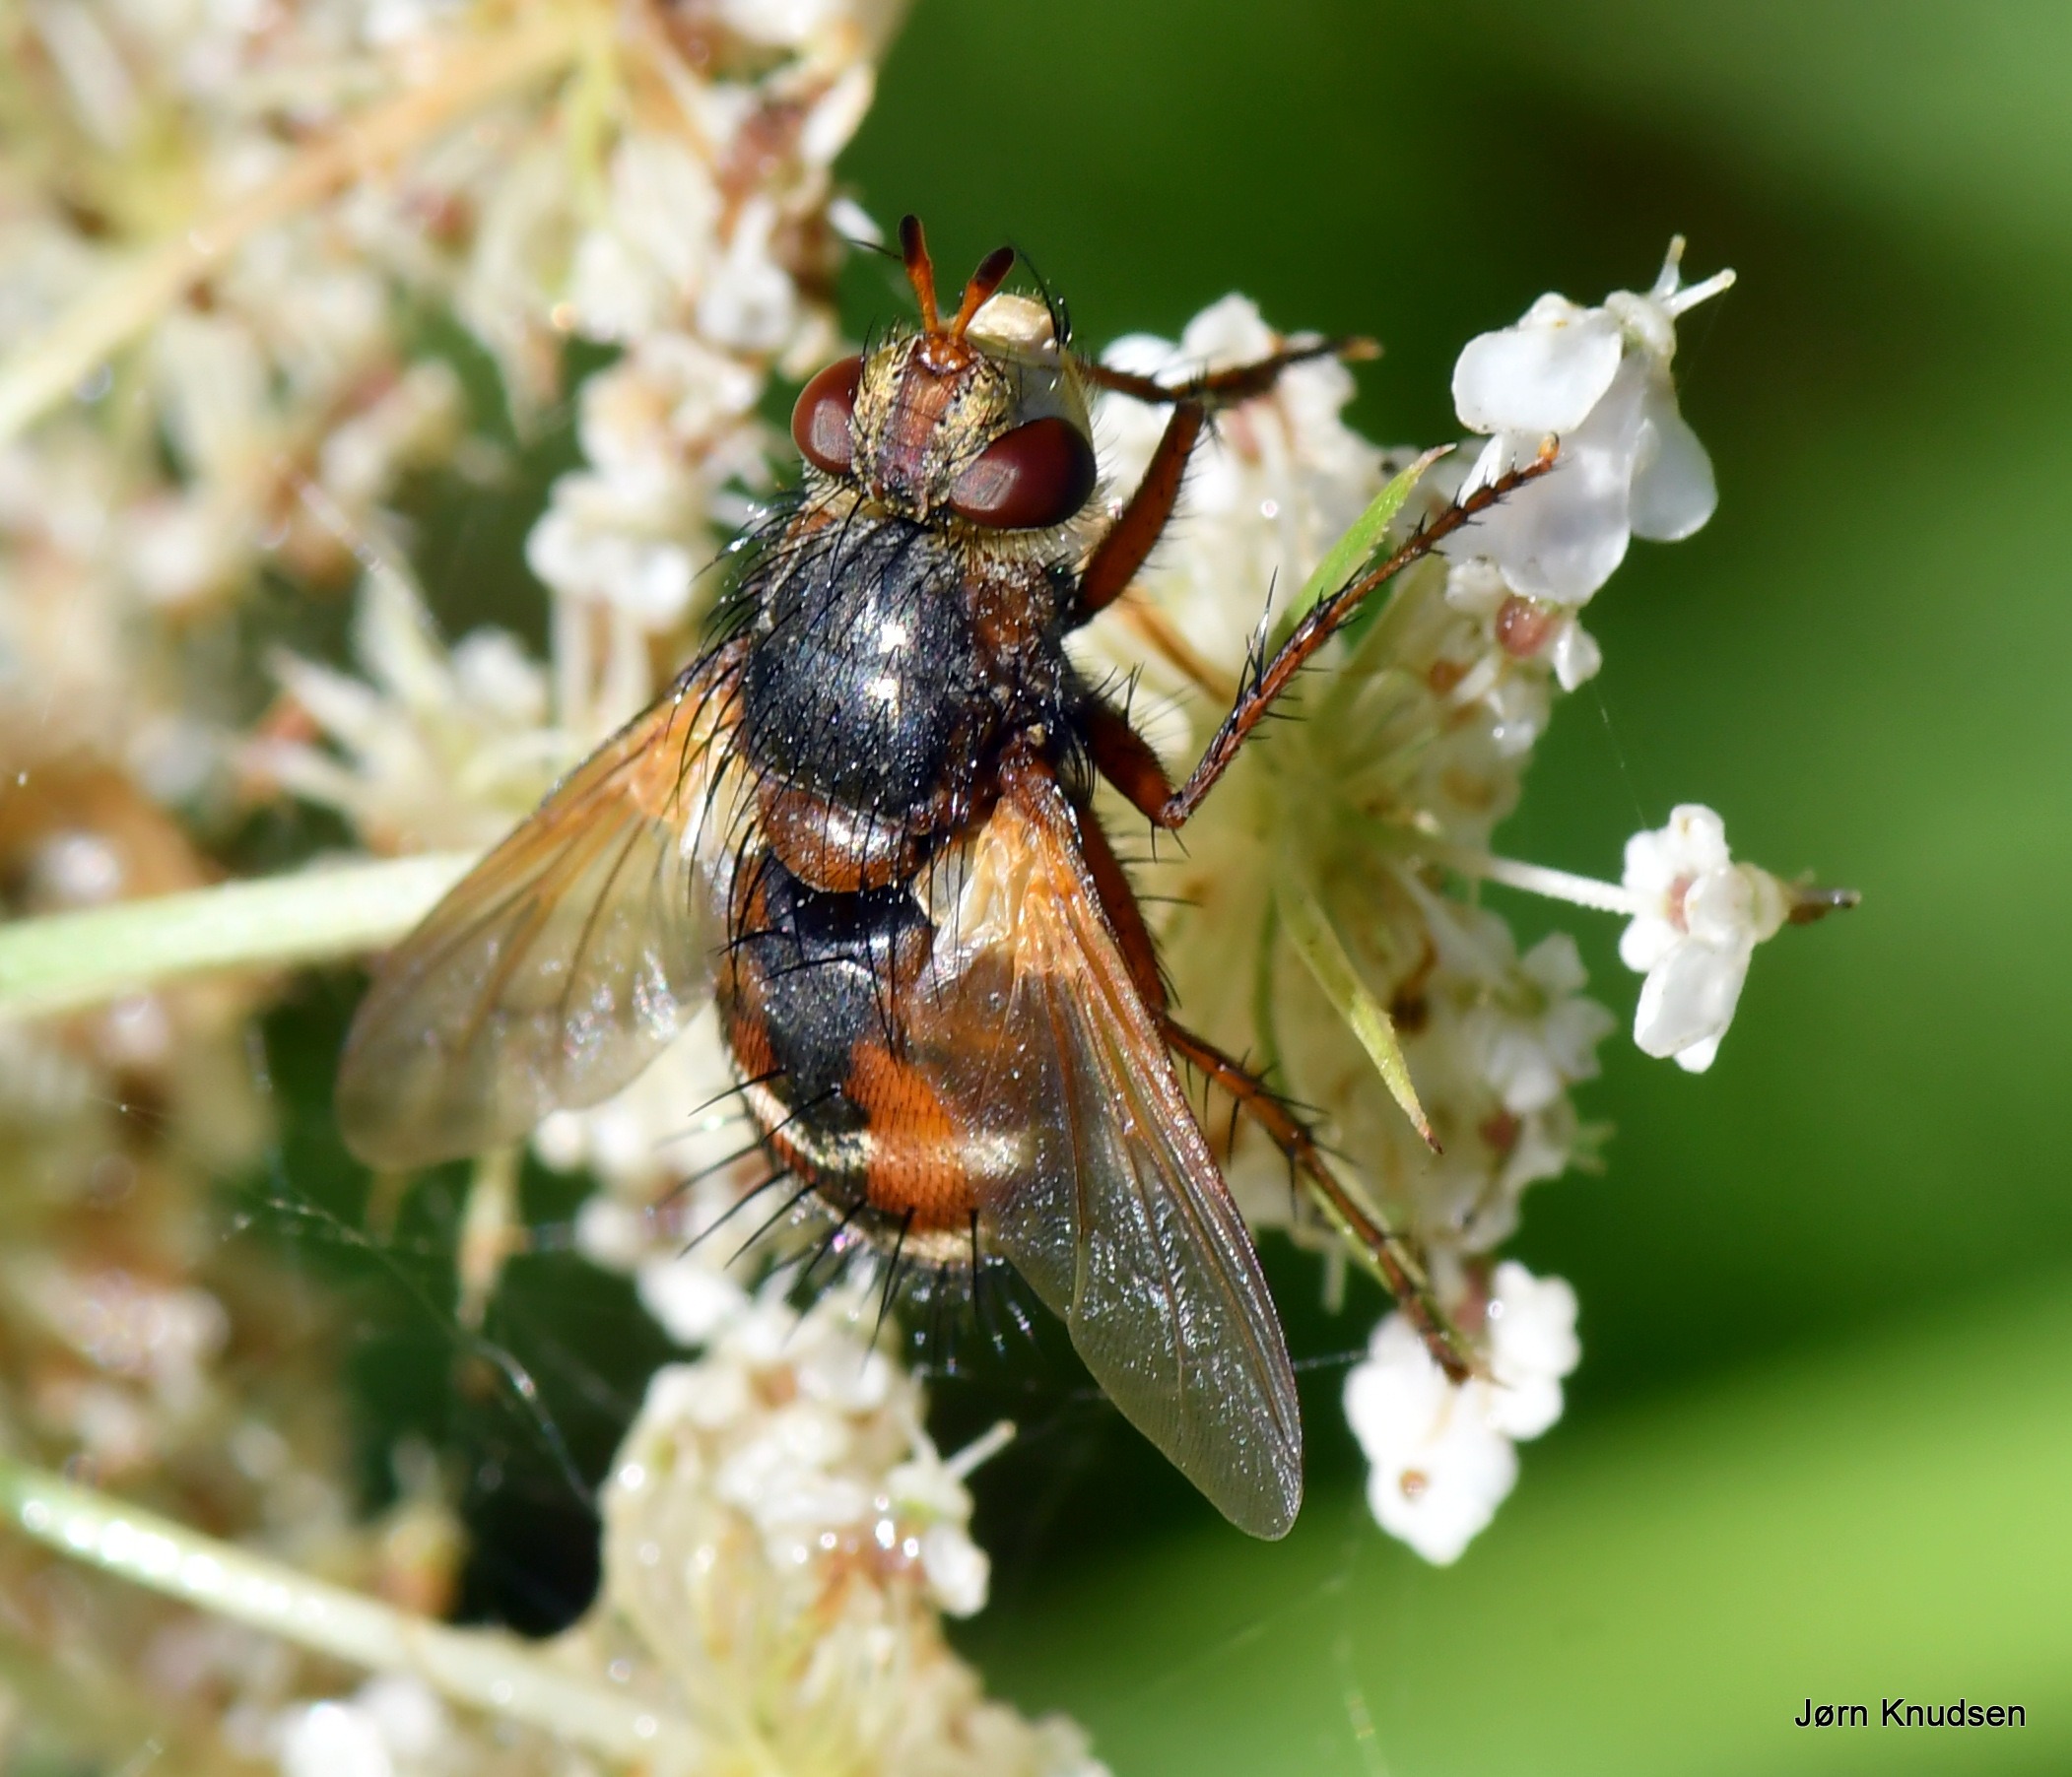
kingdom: Animalia
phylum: Arthropoda
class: Insecta
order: Diptera
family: Tachinidae
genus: Tachina
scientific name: Tachina fera
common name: Mellemfluen oskar
